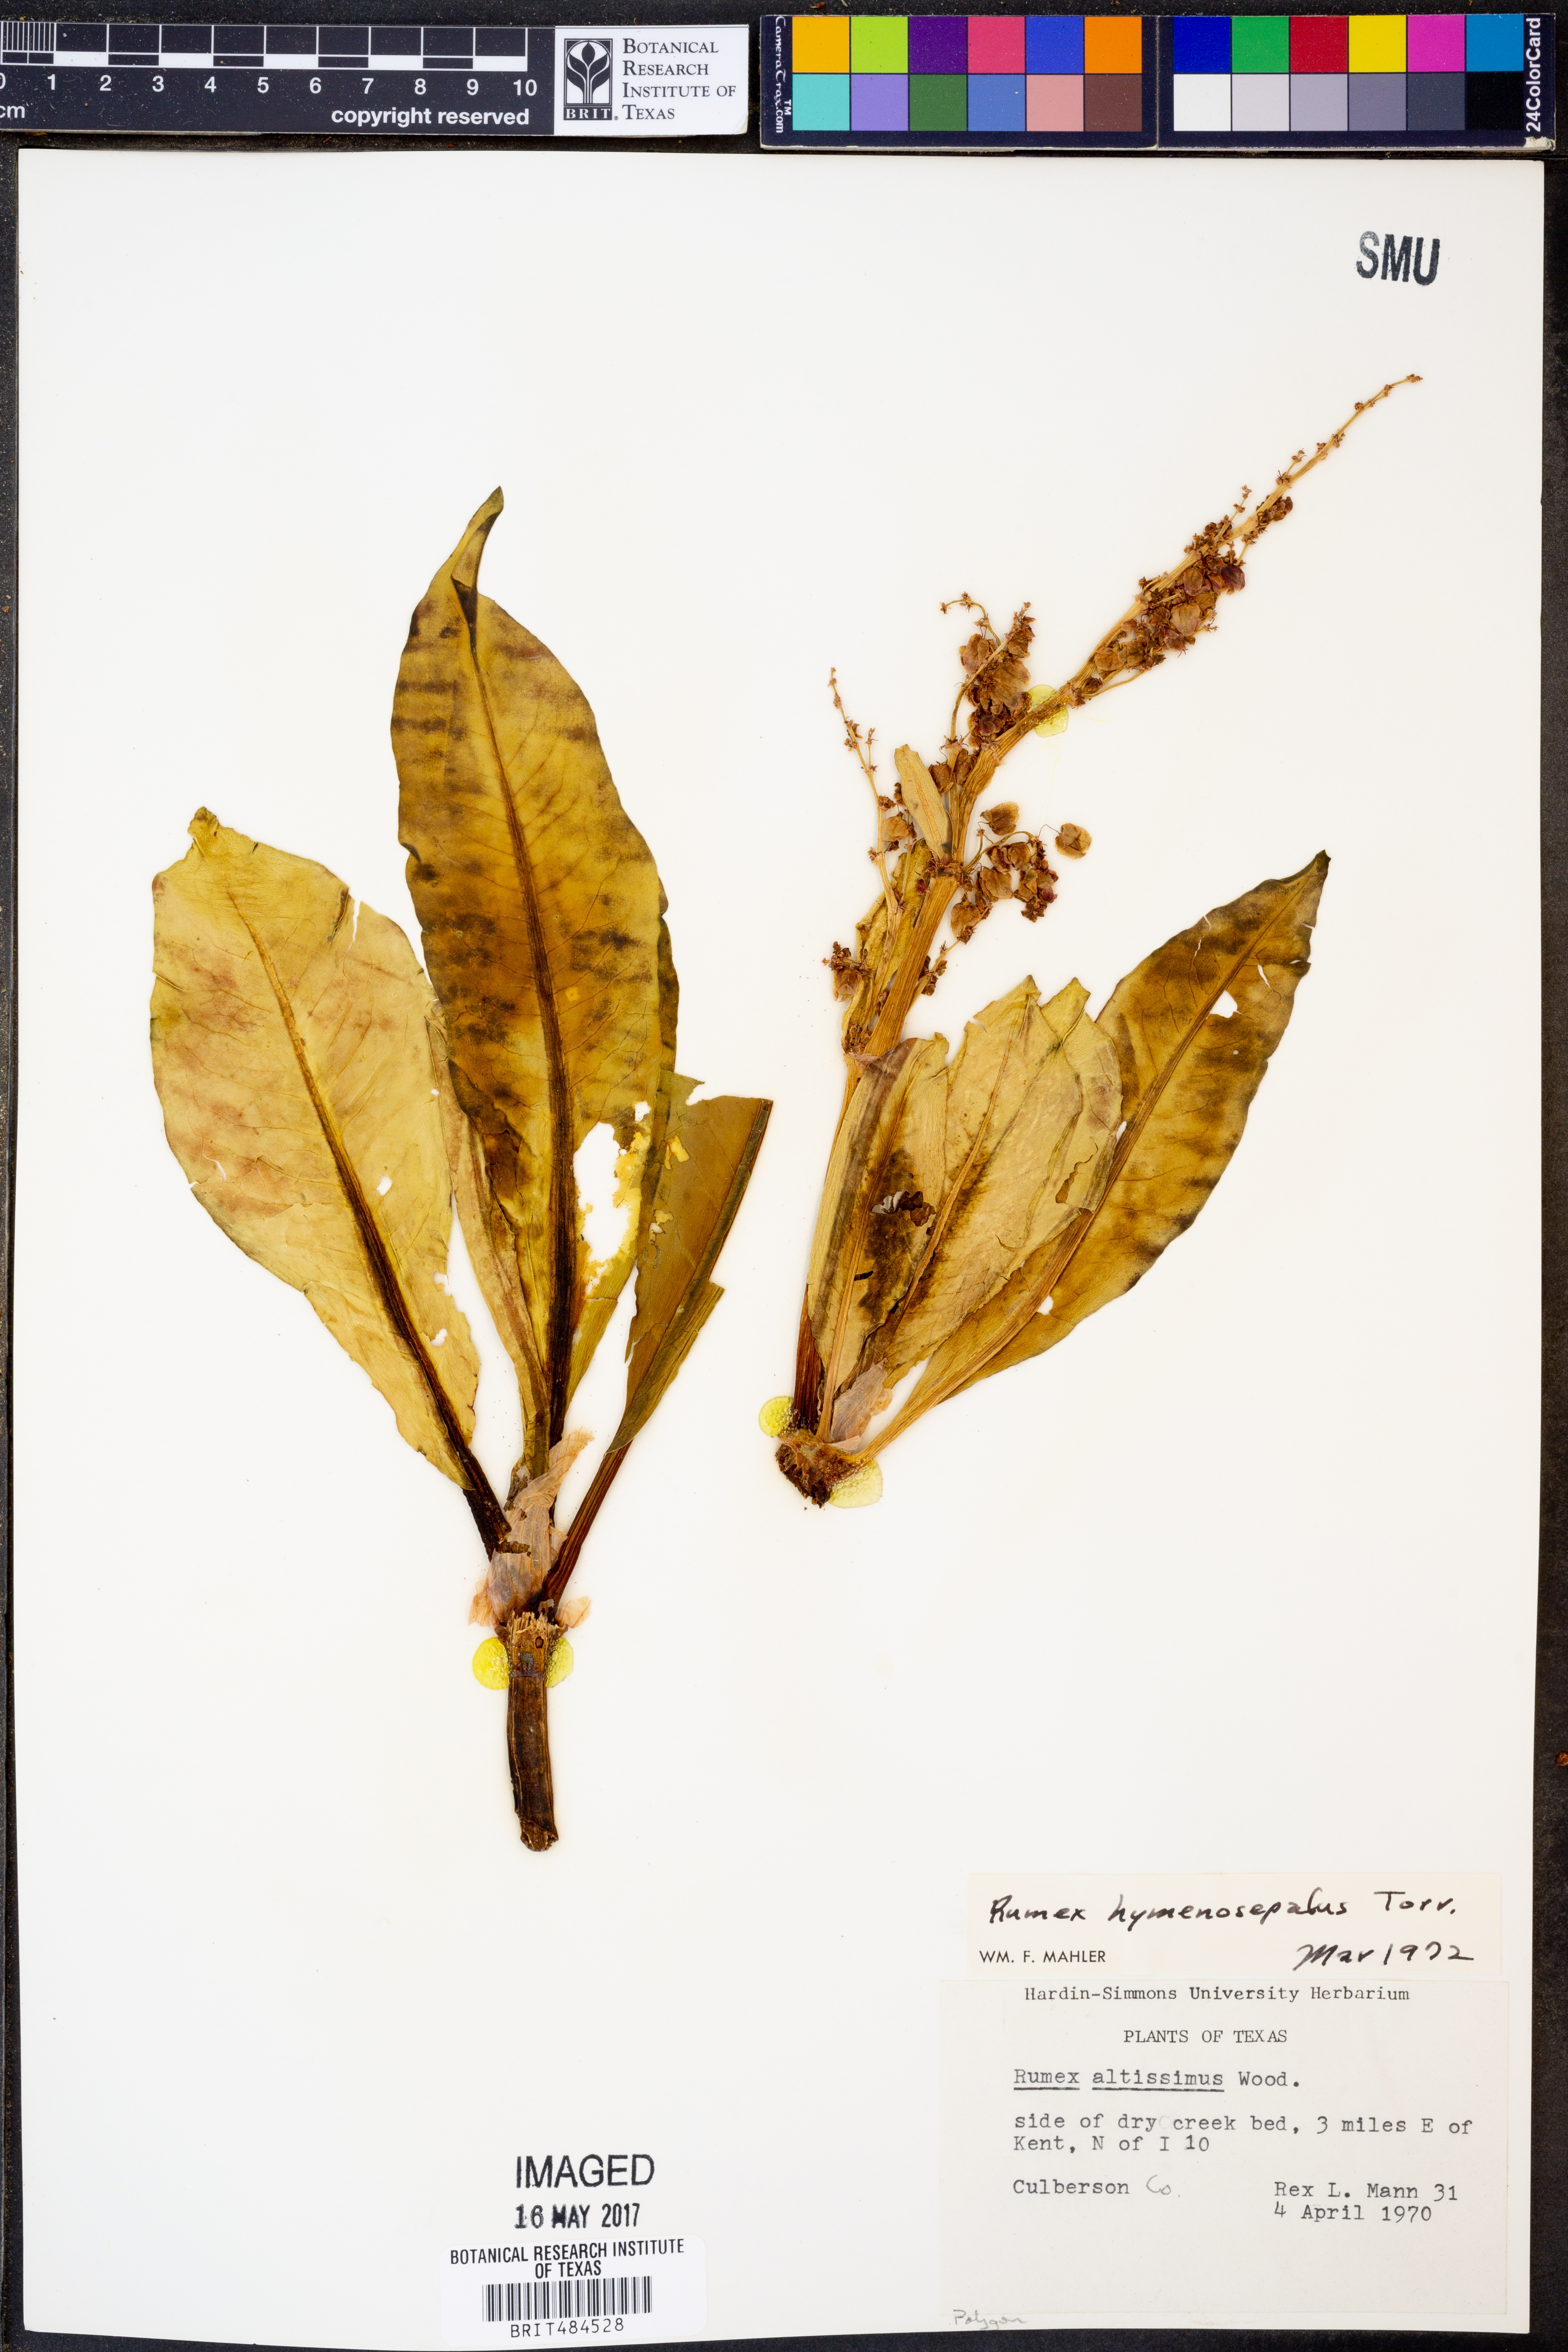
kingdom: Plantae
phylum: Tracheophyta
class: Magnoliopsida
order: Caryophyllales
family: Polygonaceae
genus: Rumex
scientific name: Rumex hymenosepalus
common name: Ganagra
